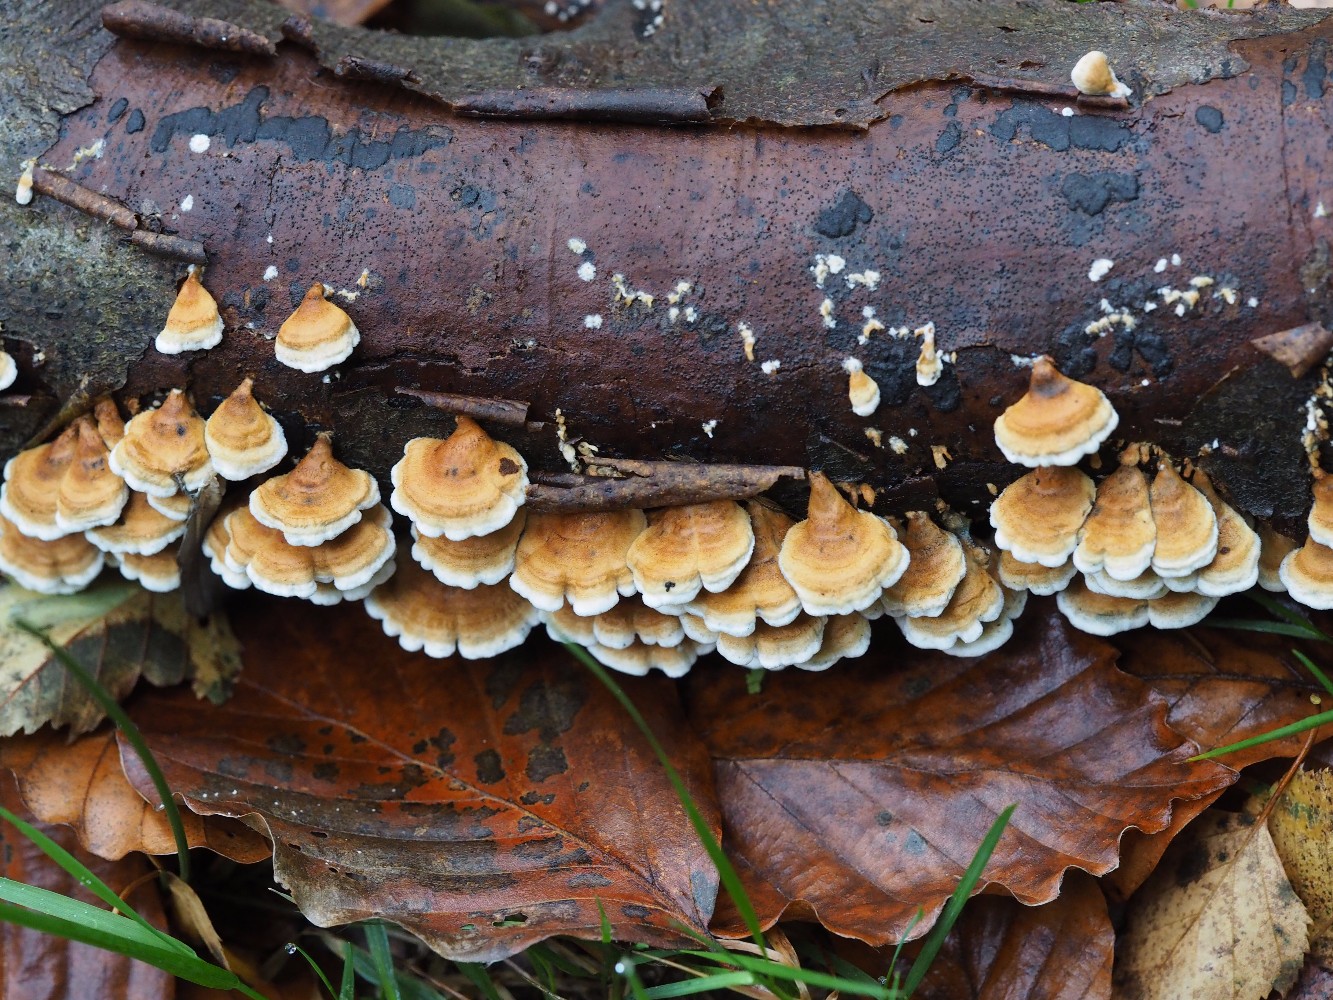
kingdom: Fungi
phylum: Basidiomycota
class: Agaricomycetes
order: Amylocorticiales
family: Amylocorticiaceae
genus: Plicaturopsis
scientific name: Plicaturopsis crispa
